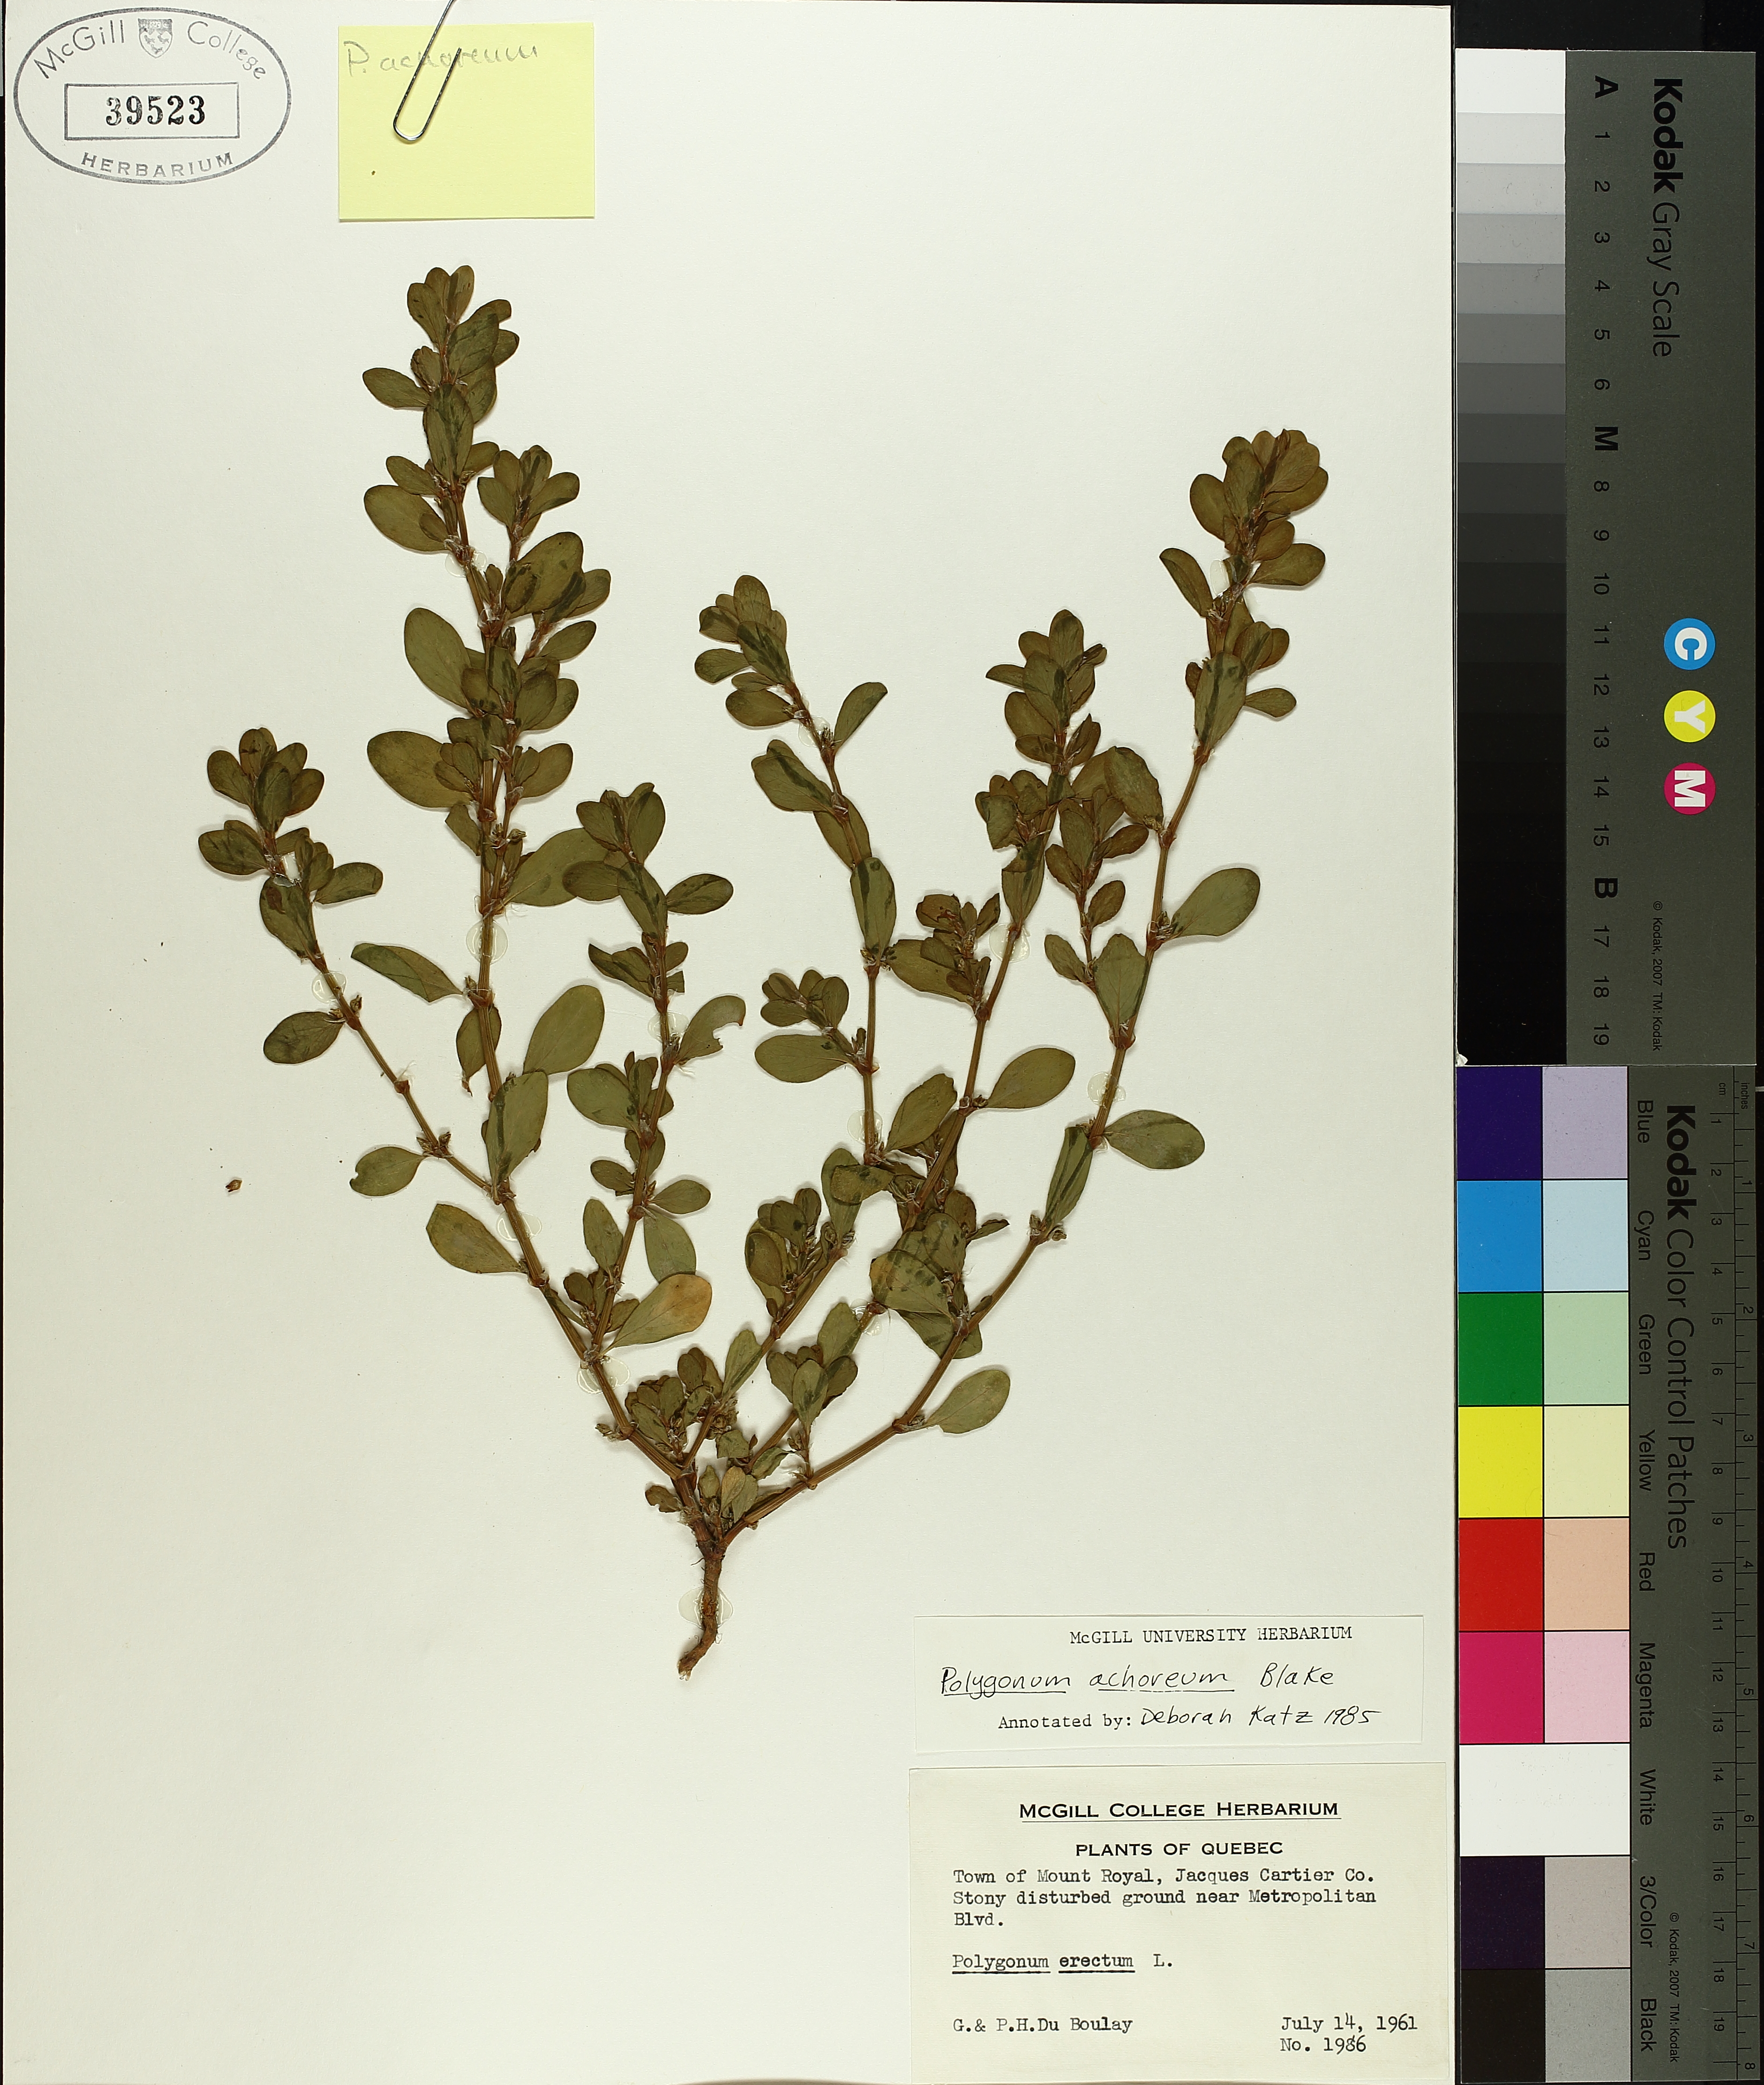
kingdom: Plantae
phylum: Tracheophyta
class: Magnoliopsida
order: Caryophyllales
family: Polygonaceae
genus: Polygonum
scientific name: Polygonum erectum
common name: Erect knotweed
